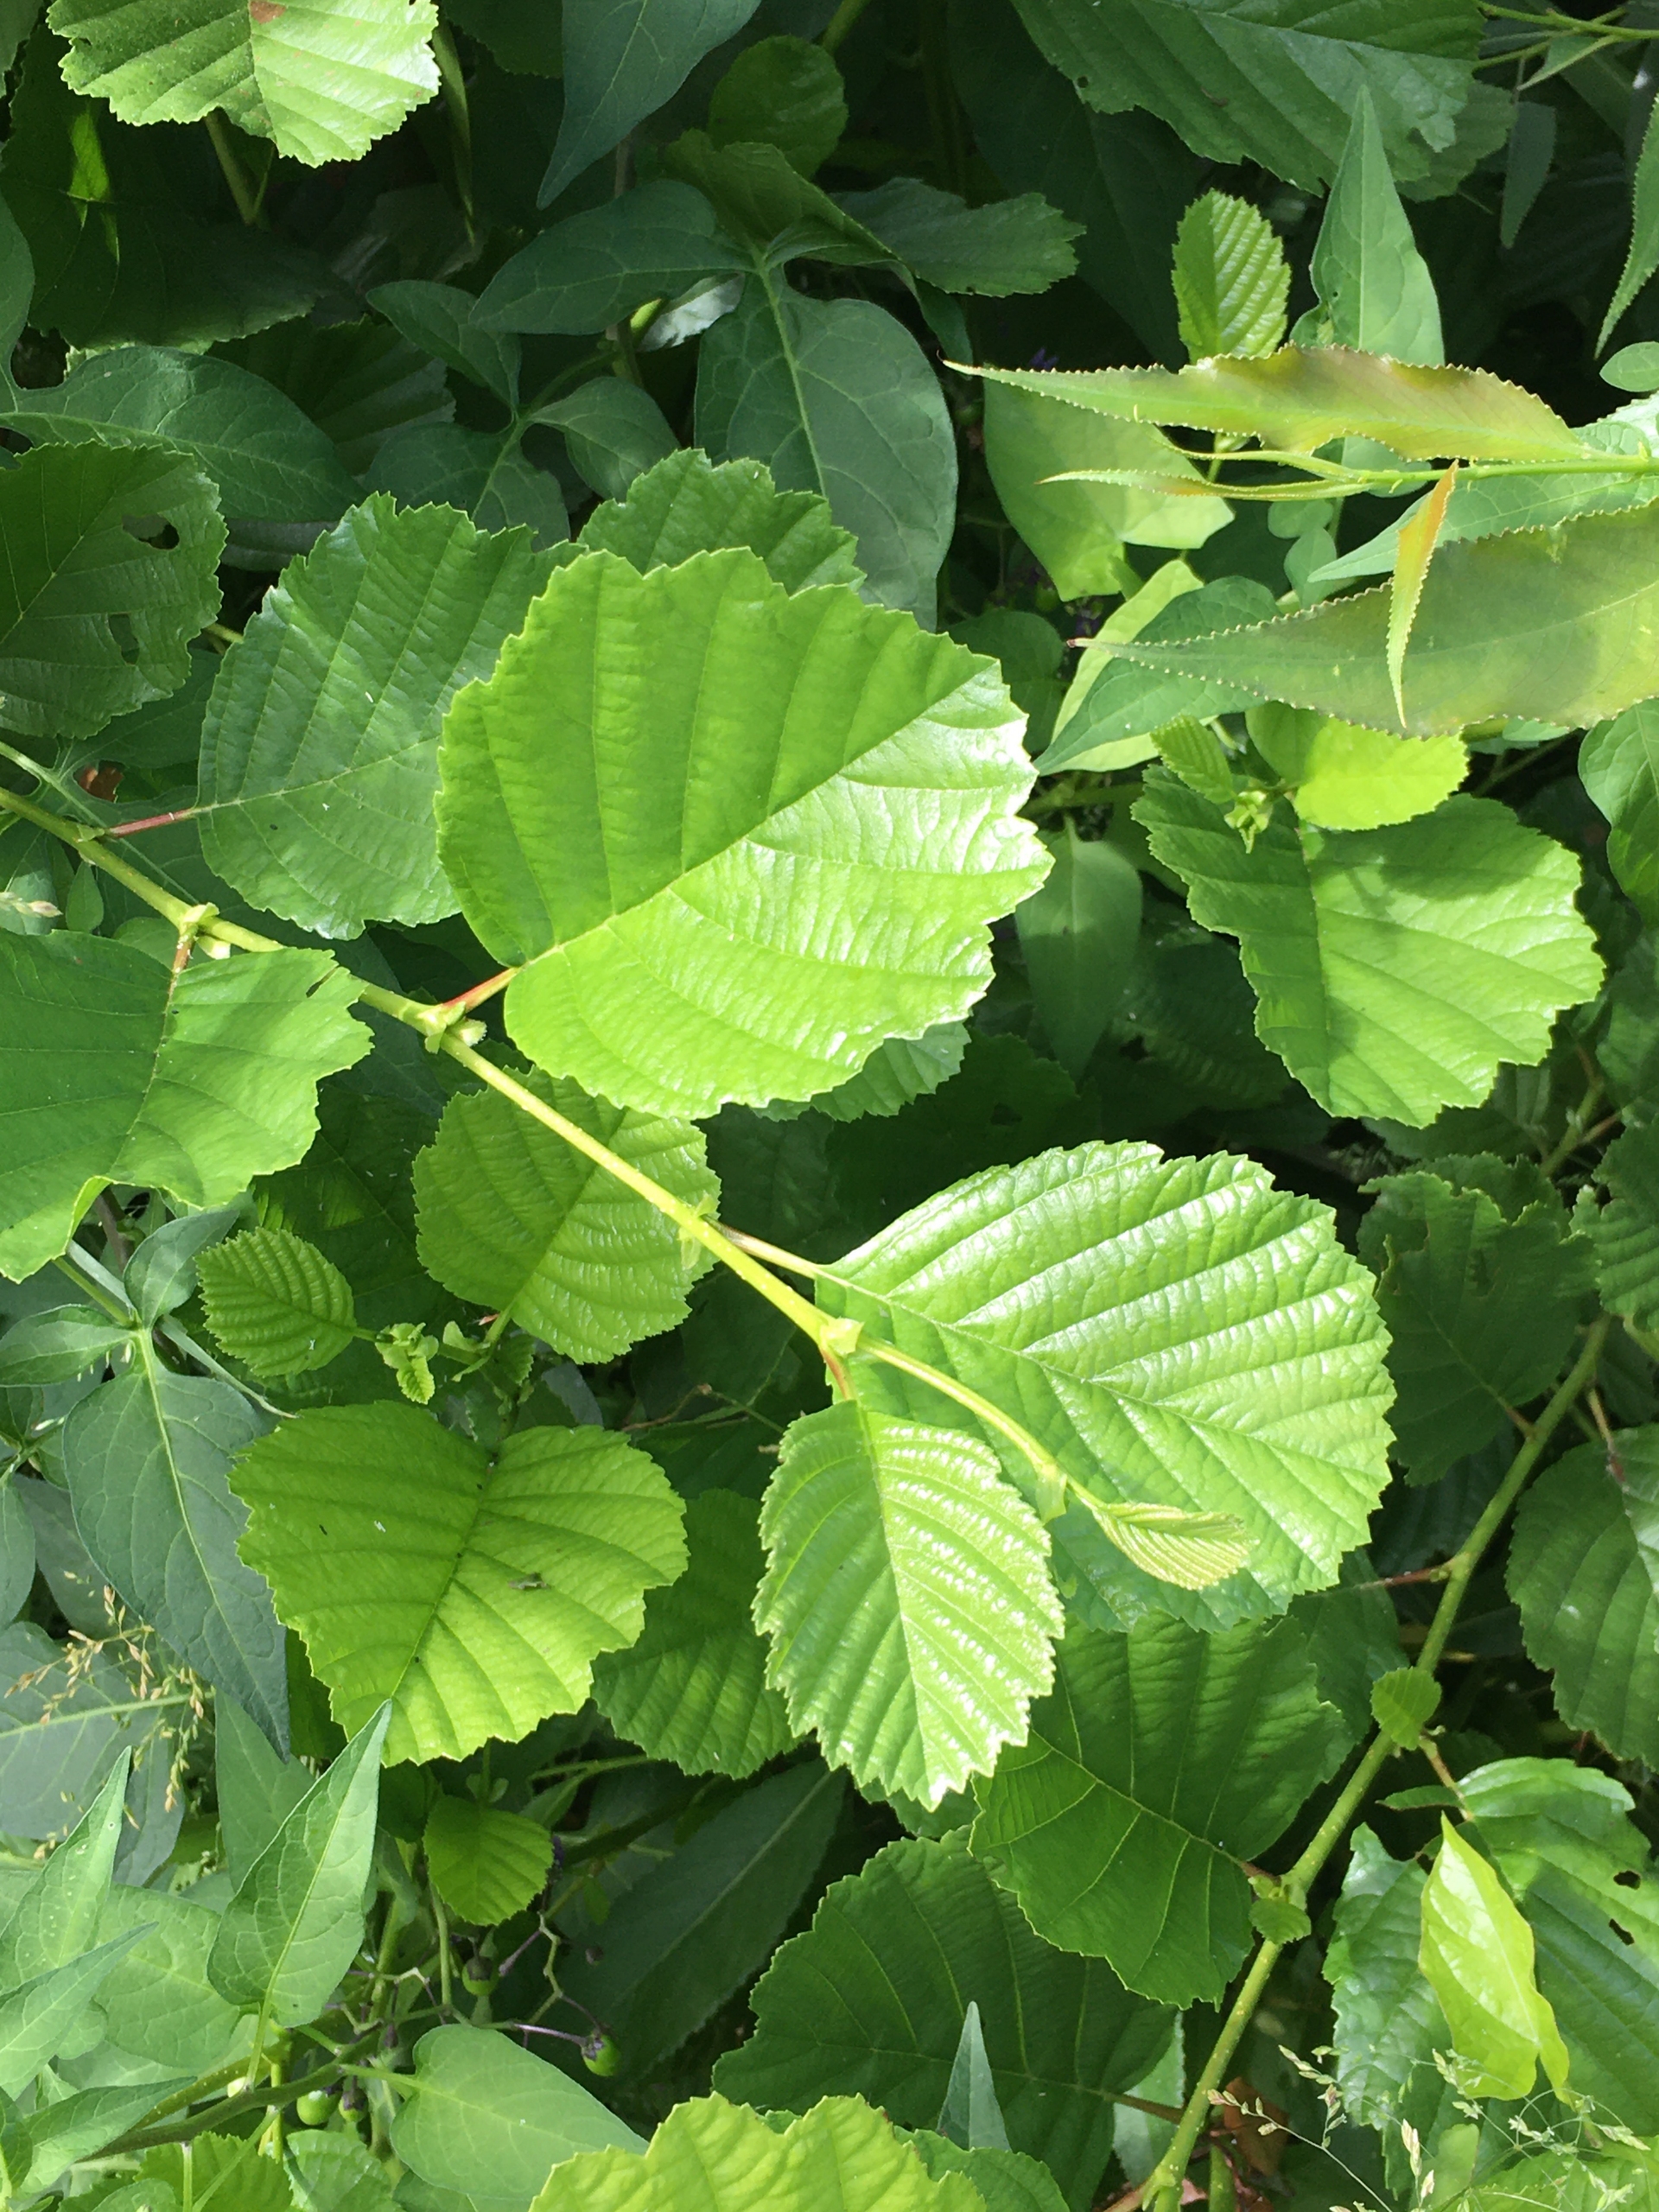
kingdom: Plantae
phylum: Tracheophyta
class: Magnoliopsida
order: Fagales
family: Betulaceae
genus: Alnus
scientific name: Alnus glutinosa
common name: Rød-el
